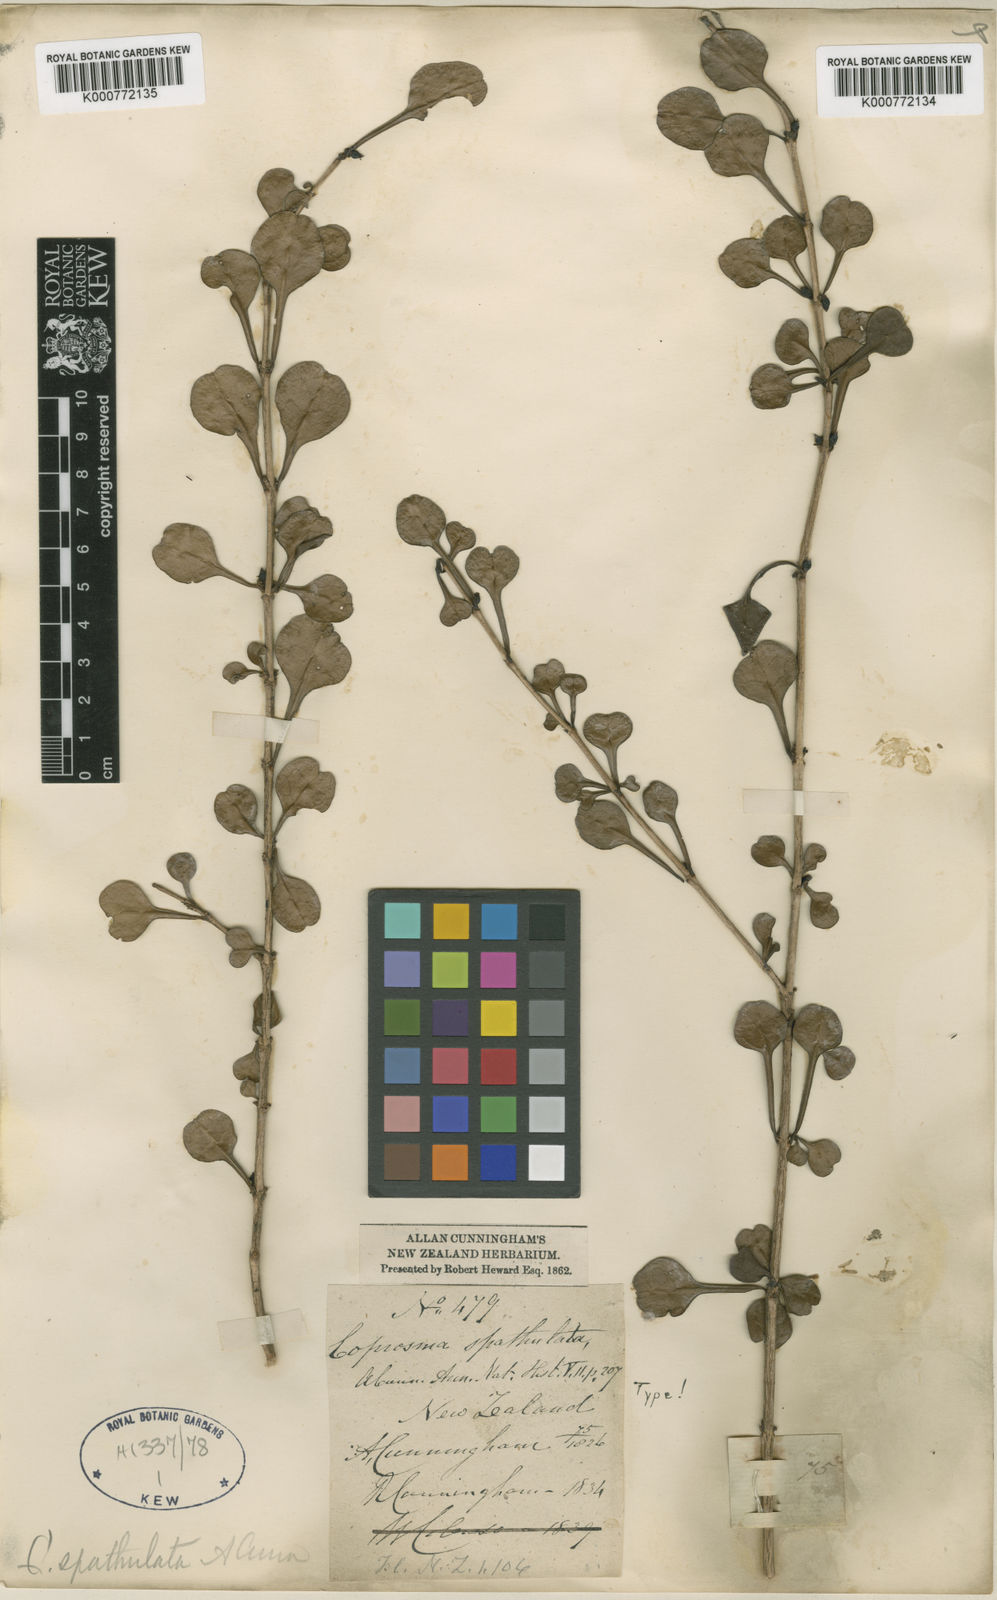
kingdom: Plantae
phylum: Tracheophyta
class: Magnoliopsida
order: Gentianales
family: Rubiaceae
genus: Coprosma
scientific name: Coprosma spathulata
